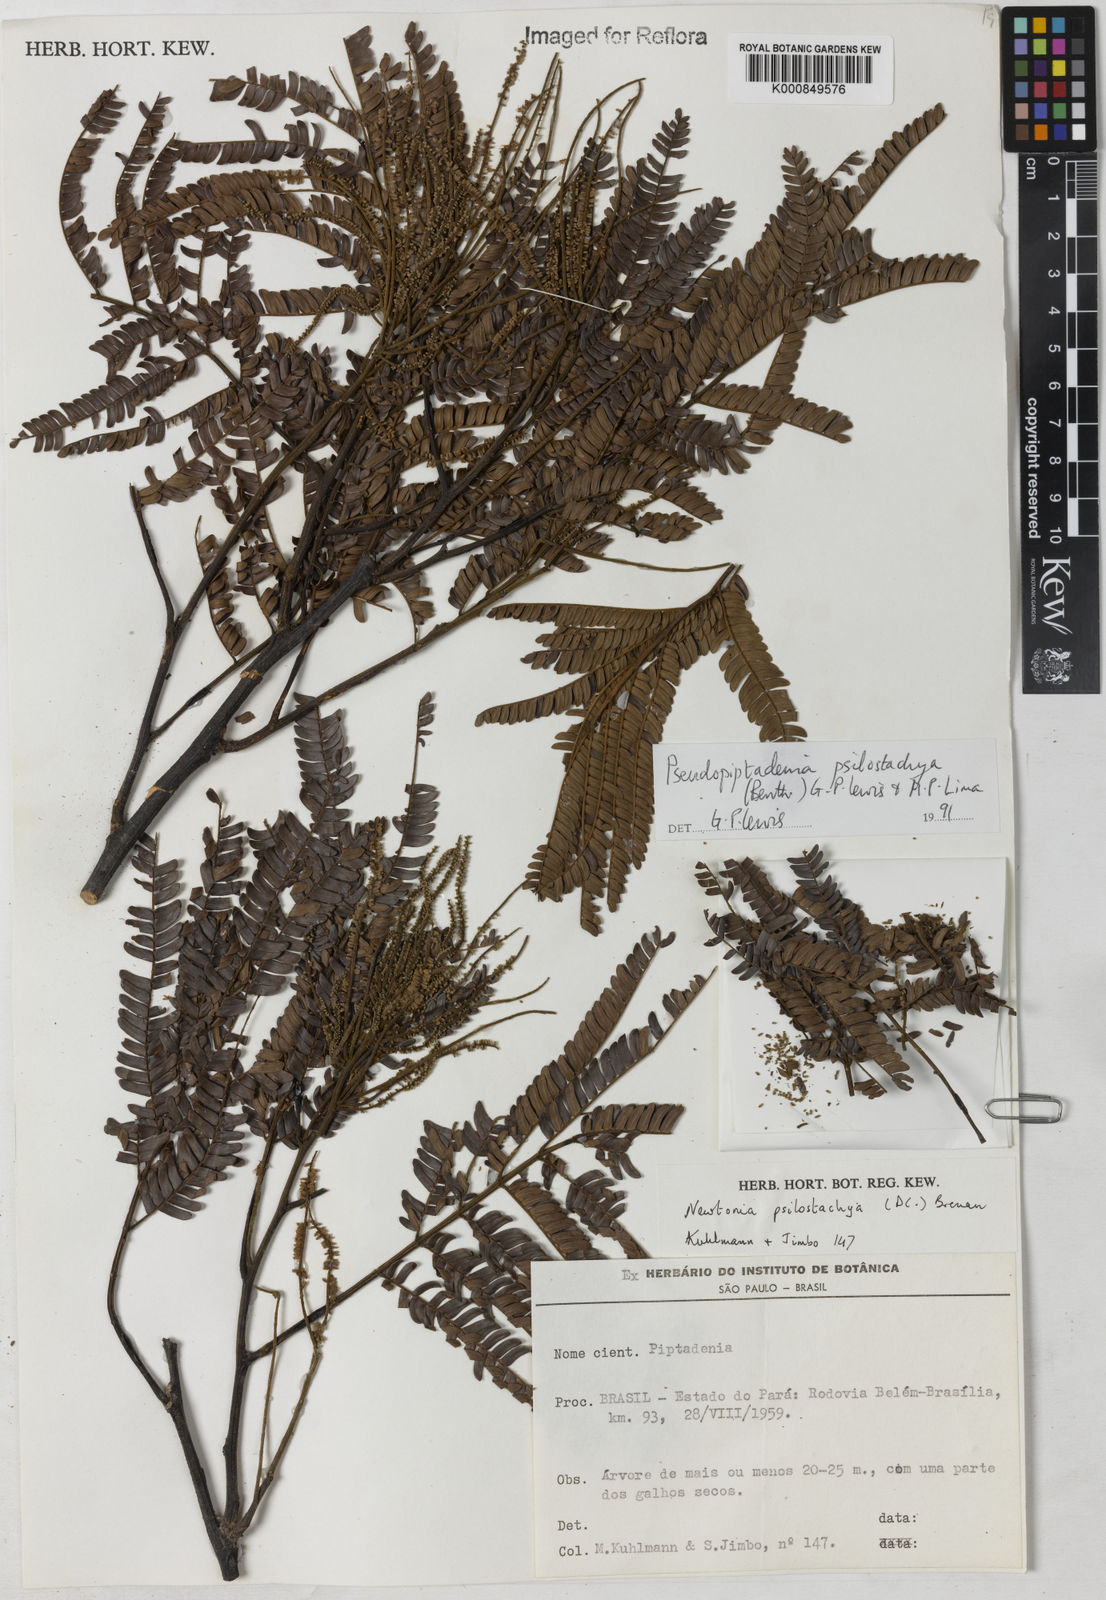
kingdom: Plantae
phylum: Tracheophyta
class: Magnoliopsida
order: Fabales
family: Fabaceae
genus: Pseudopiptadenia
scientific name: Pseudopiptadenia psilostachya
